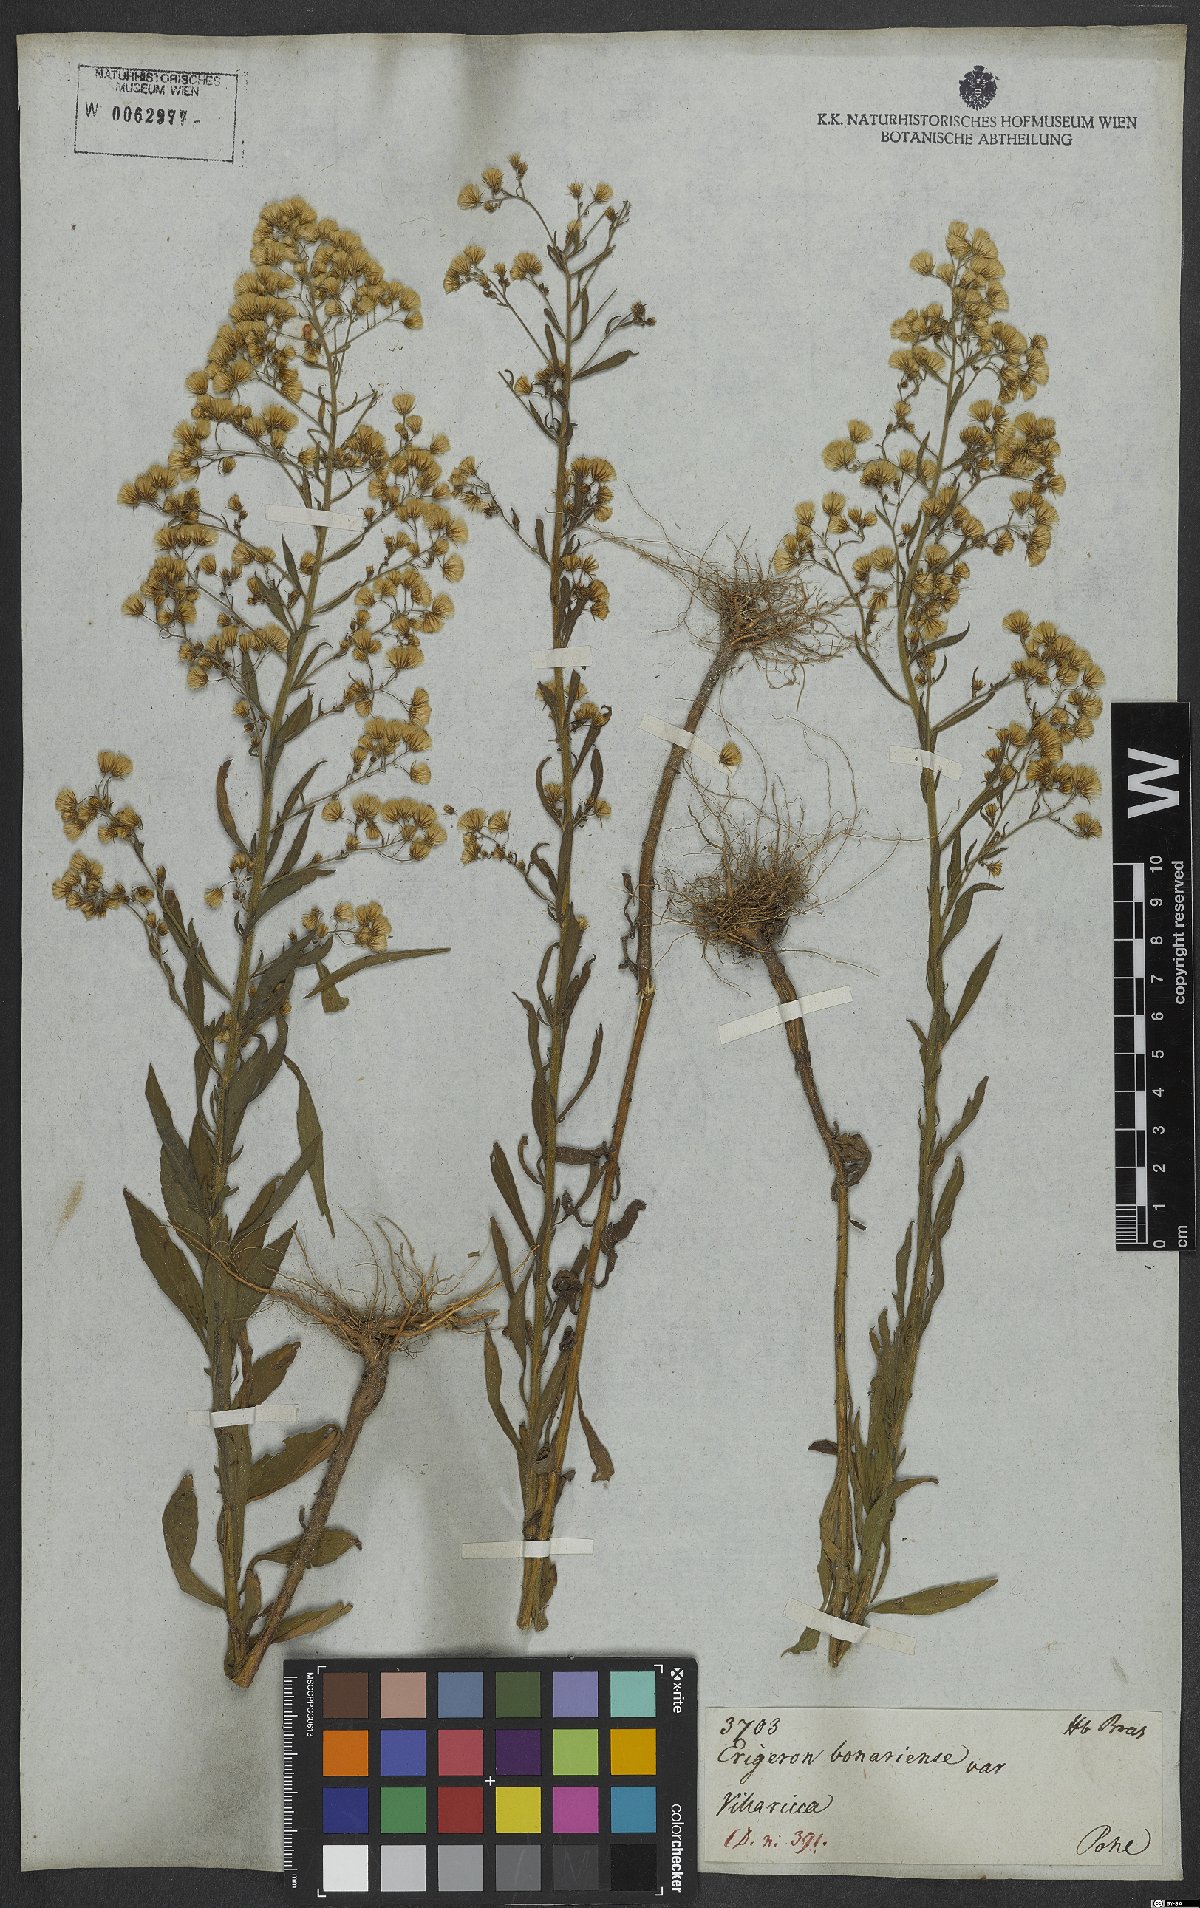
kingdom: Plantae
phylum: Tracheophyta
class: Magnoliopsida
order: Asterales
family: Asteraceae
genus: Erigeron
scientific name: Erigeron bonariensis
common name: Argentine fleabane
